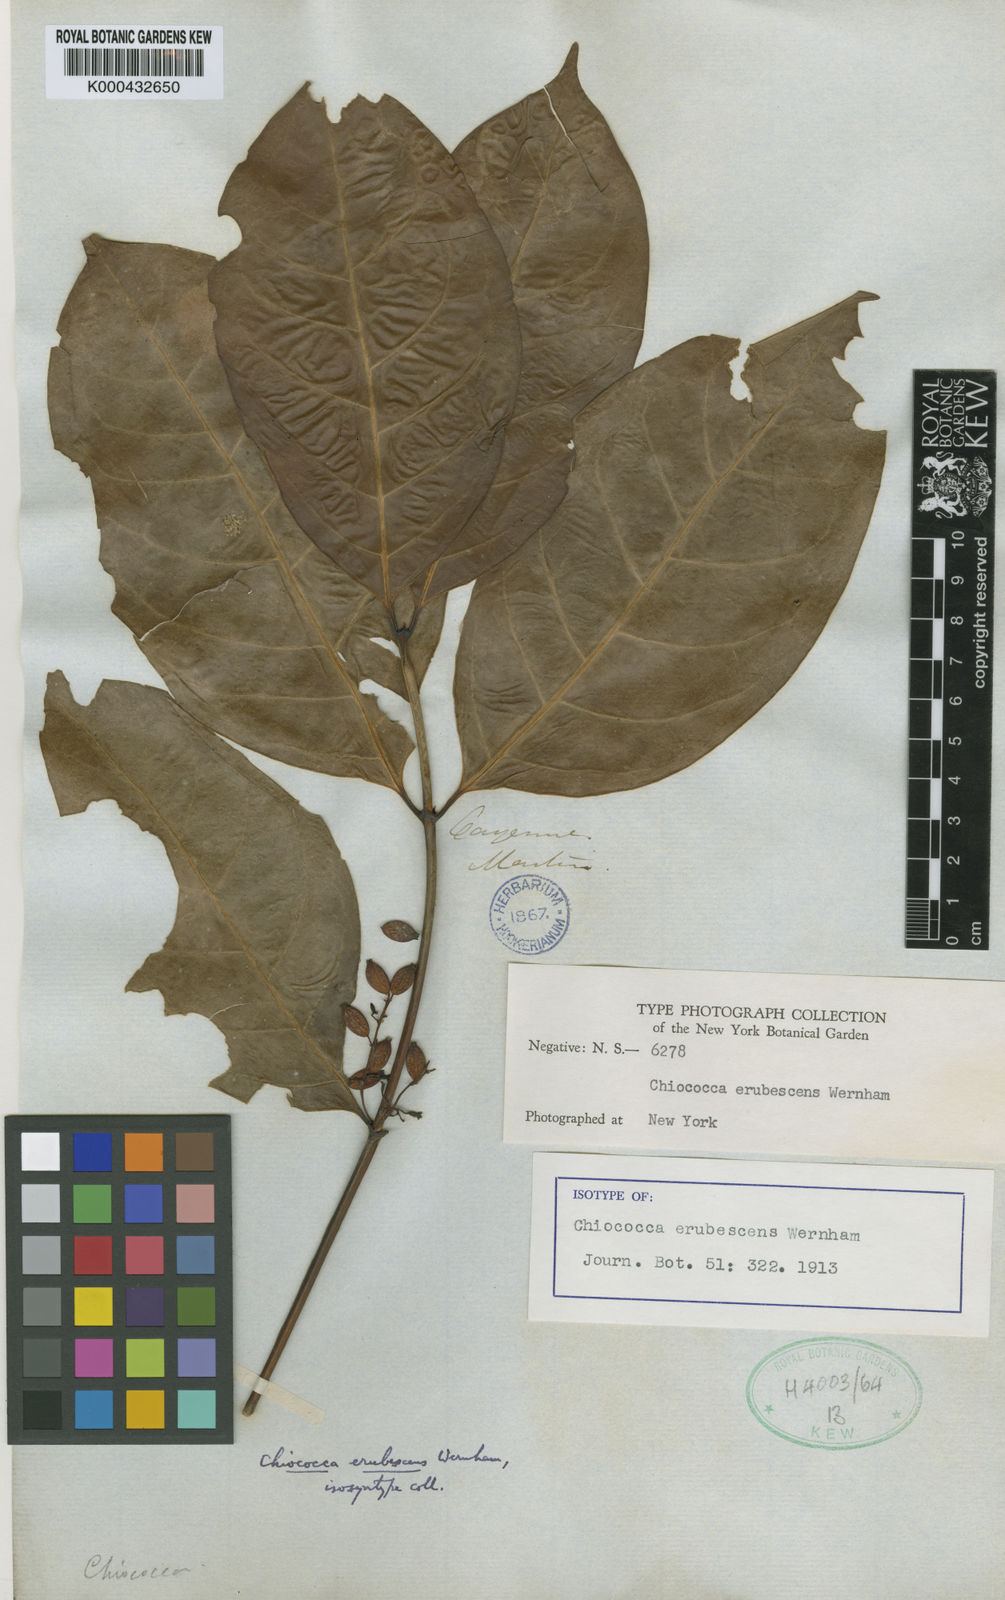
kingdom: Plantae
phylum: Tracheophyta
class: Magnoliopsida
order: Gentianales
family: Rubiaceae
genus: Chiococca
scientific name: Chiococca nitida
